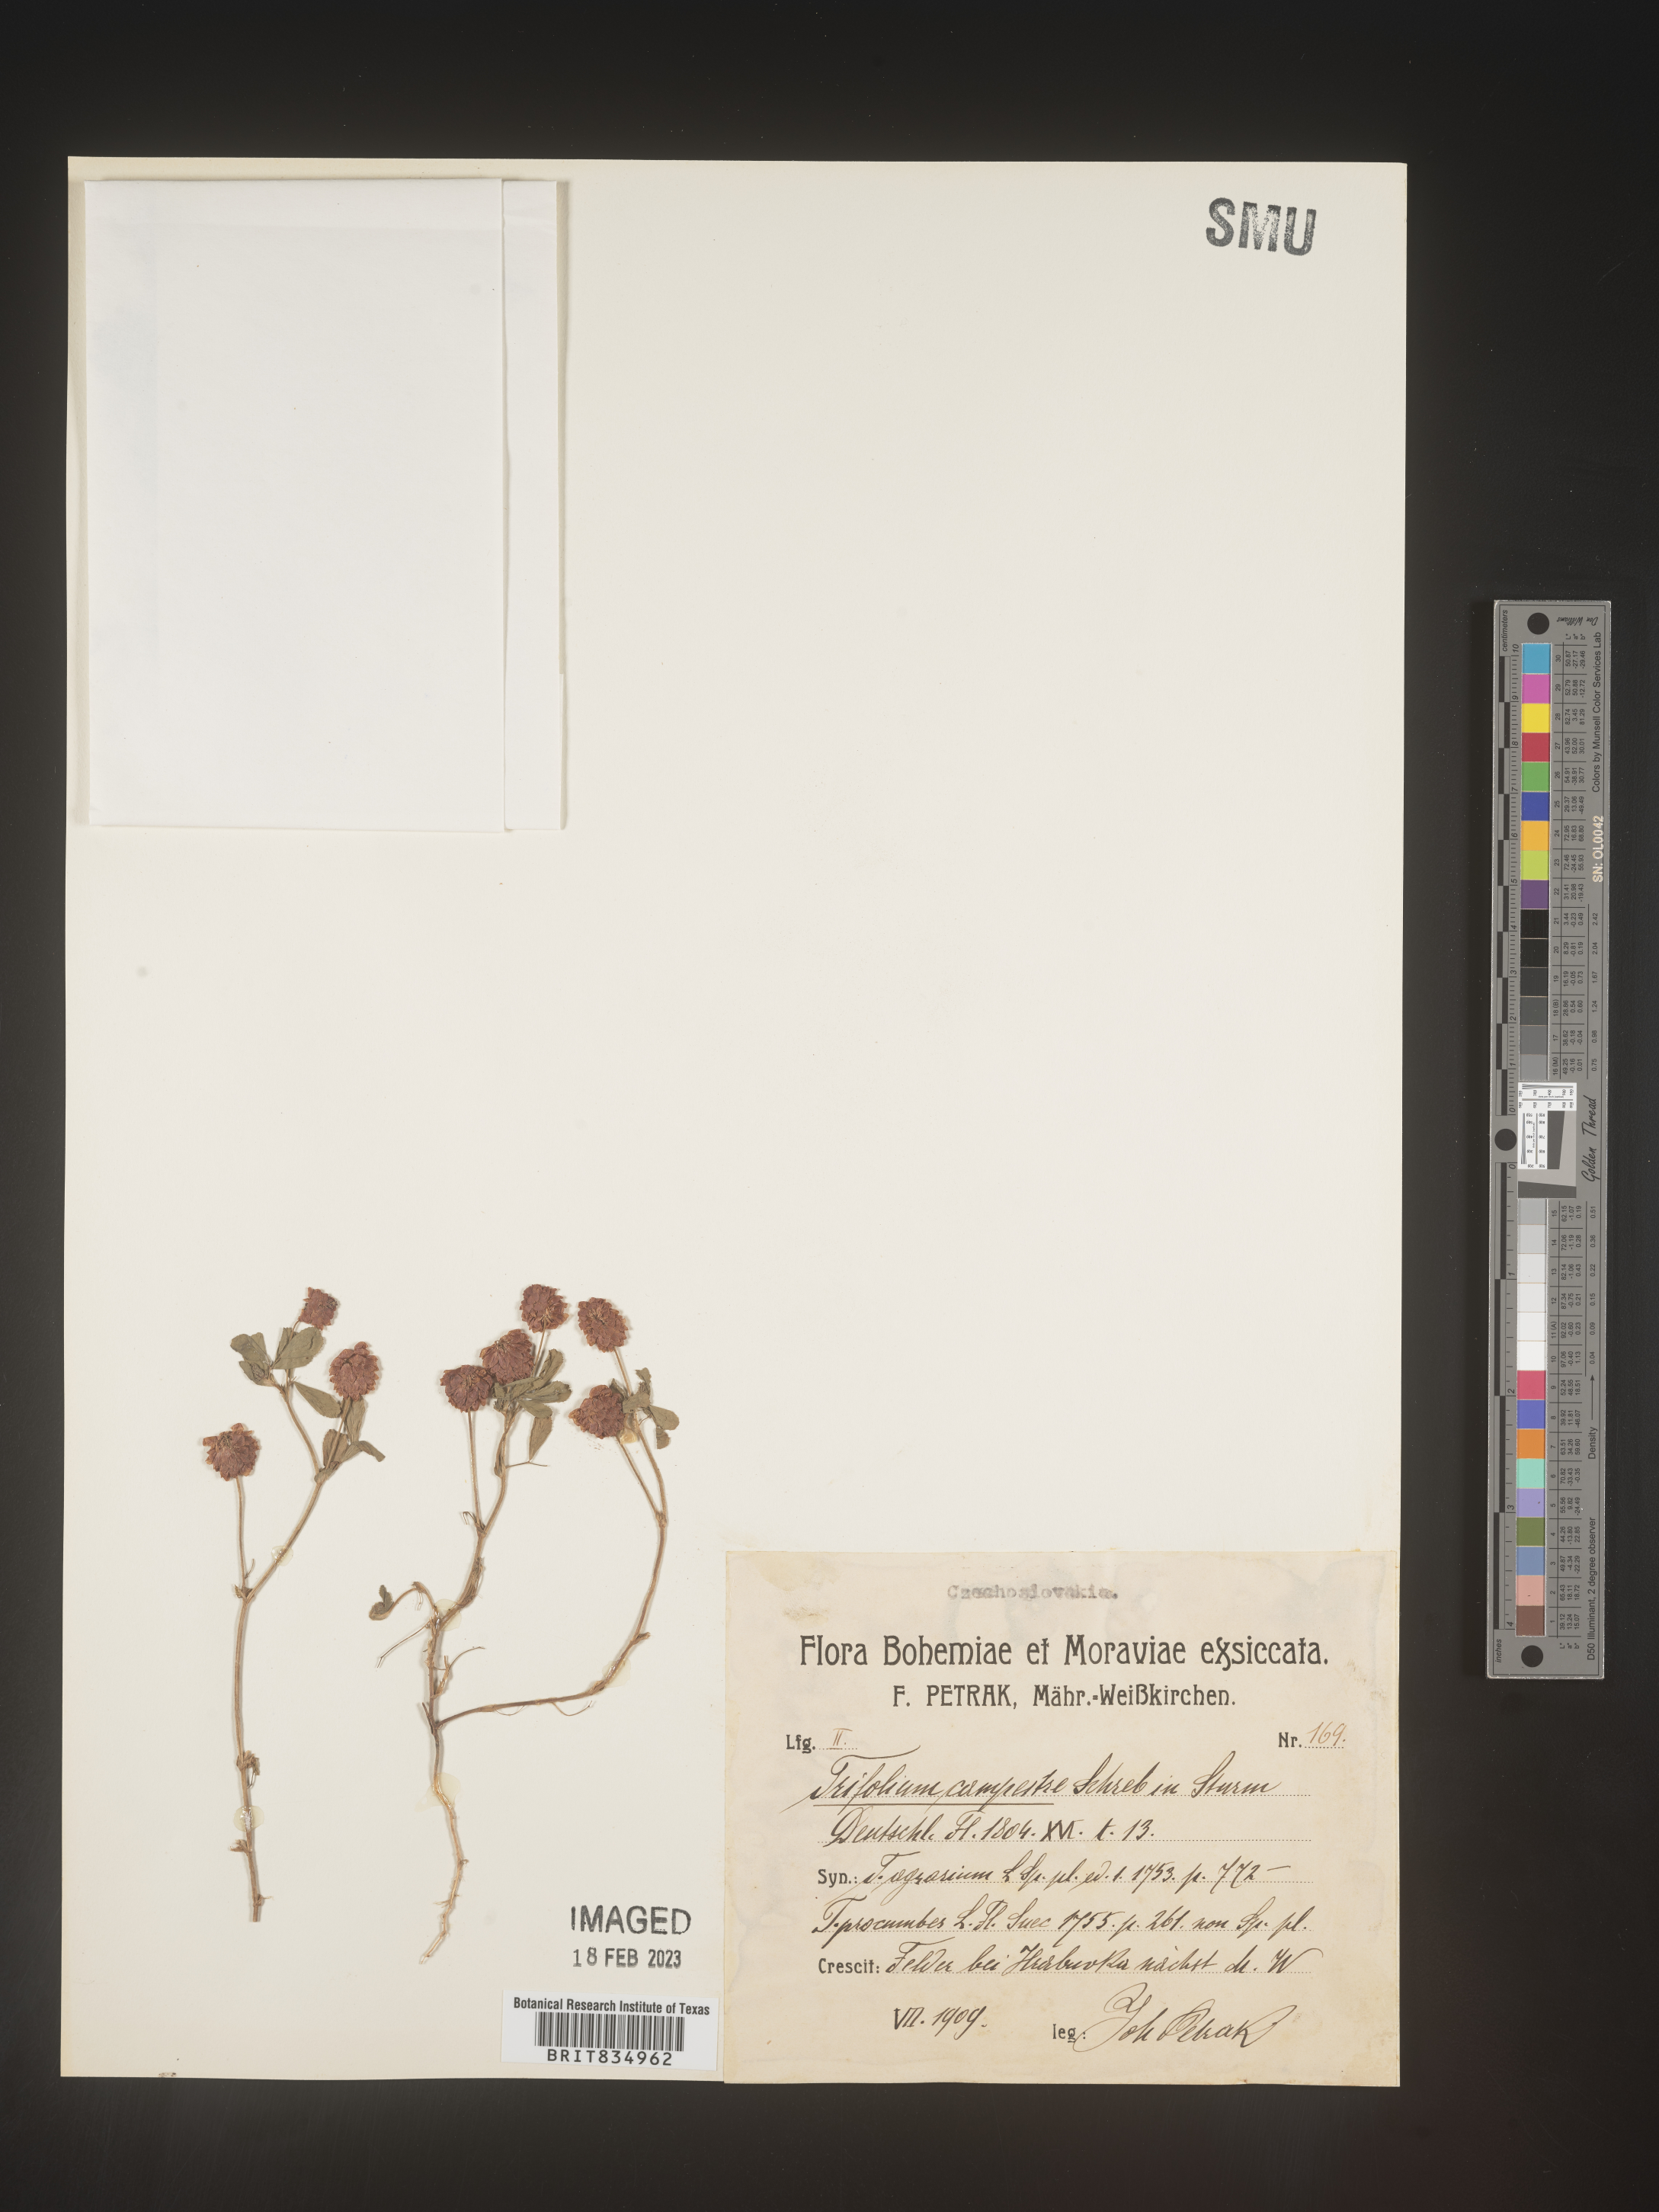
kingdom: Plantae
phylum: Tracheophyta
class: Magnoliopsida
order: Fabales
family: Fabaceae
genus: Trifolium
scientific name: Trifolium
